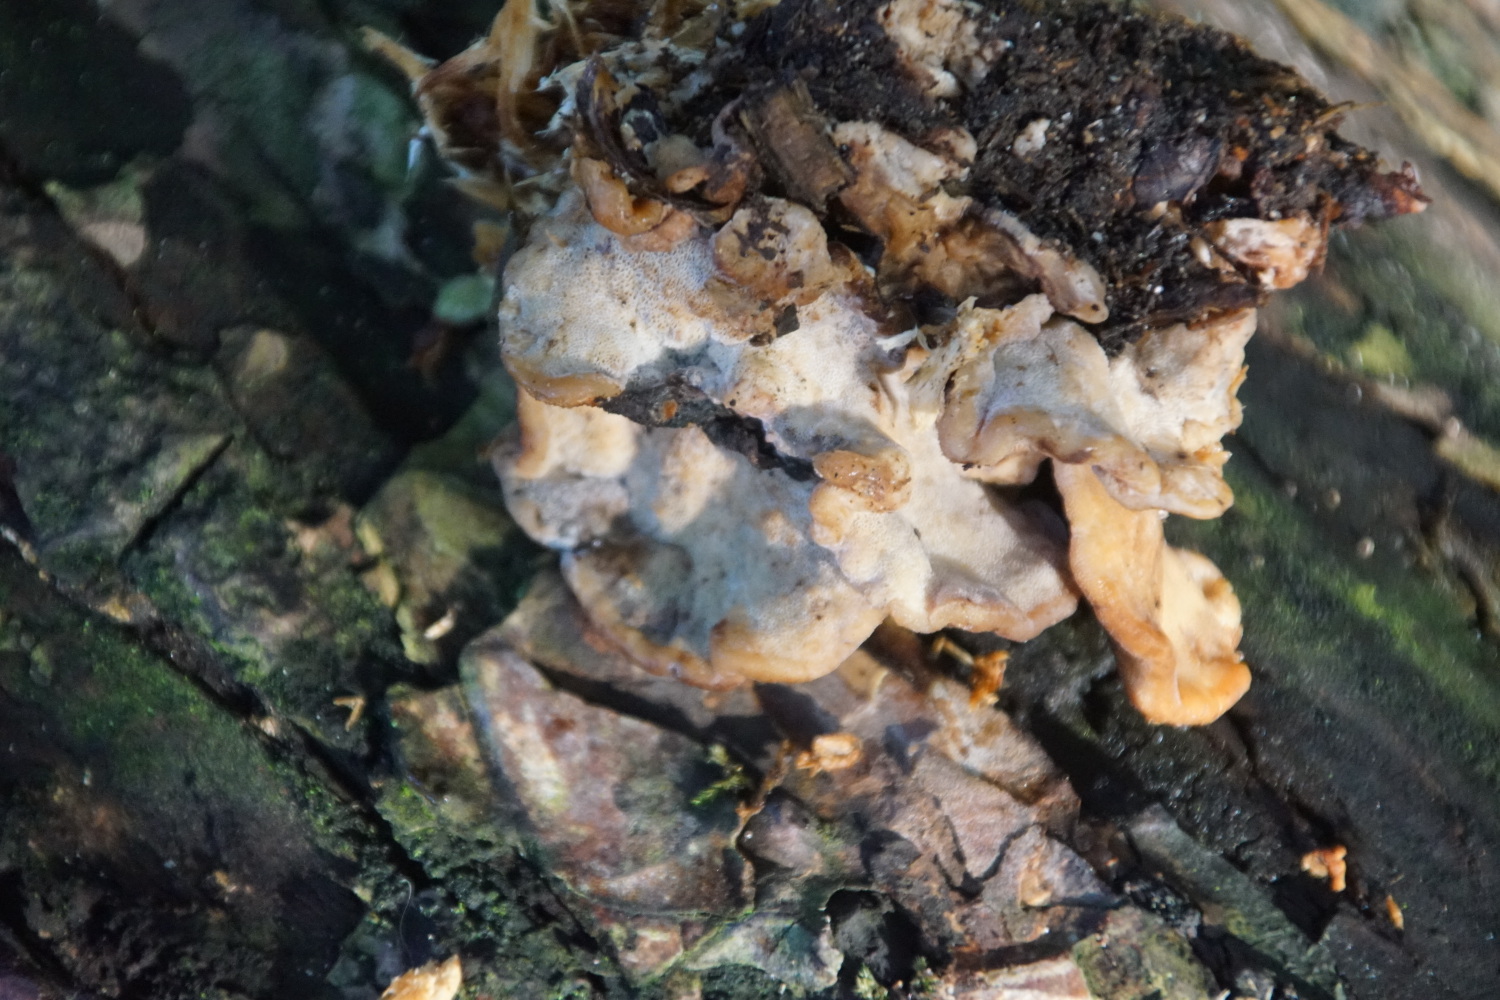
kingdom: Fungi
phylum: Basidiomycota
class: Agaricomycetes
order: Polyporales
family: Ischnodermataceae
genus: Ischnoderma
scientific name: Ischnoderma benzoinum
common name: gran-tjæreporesvamp
